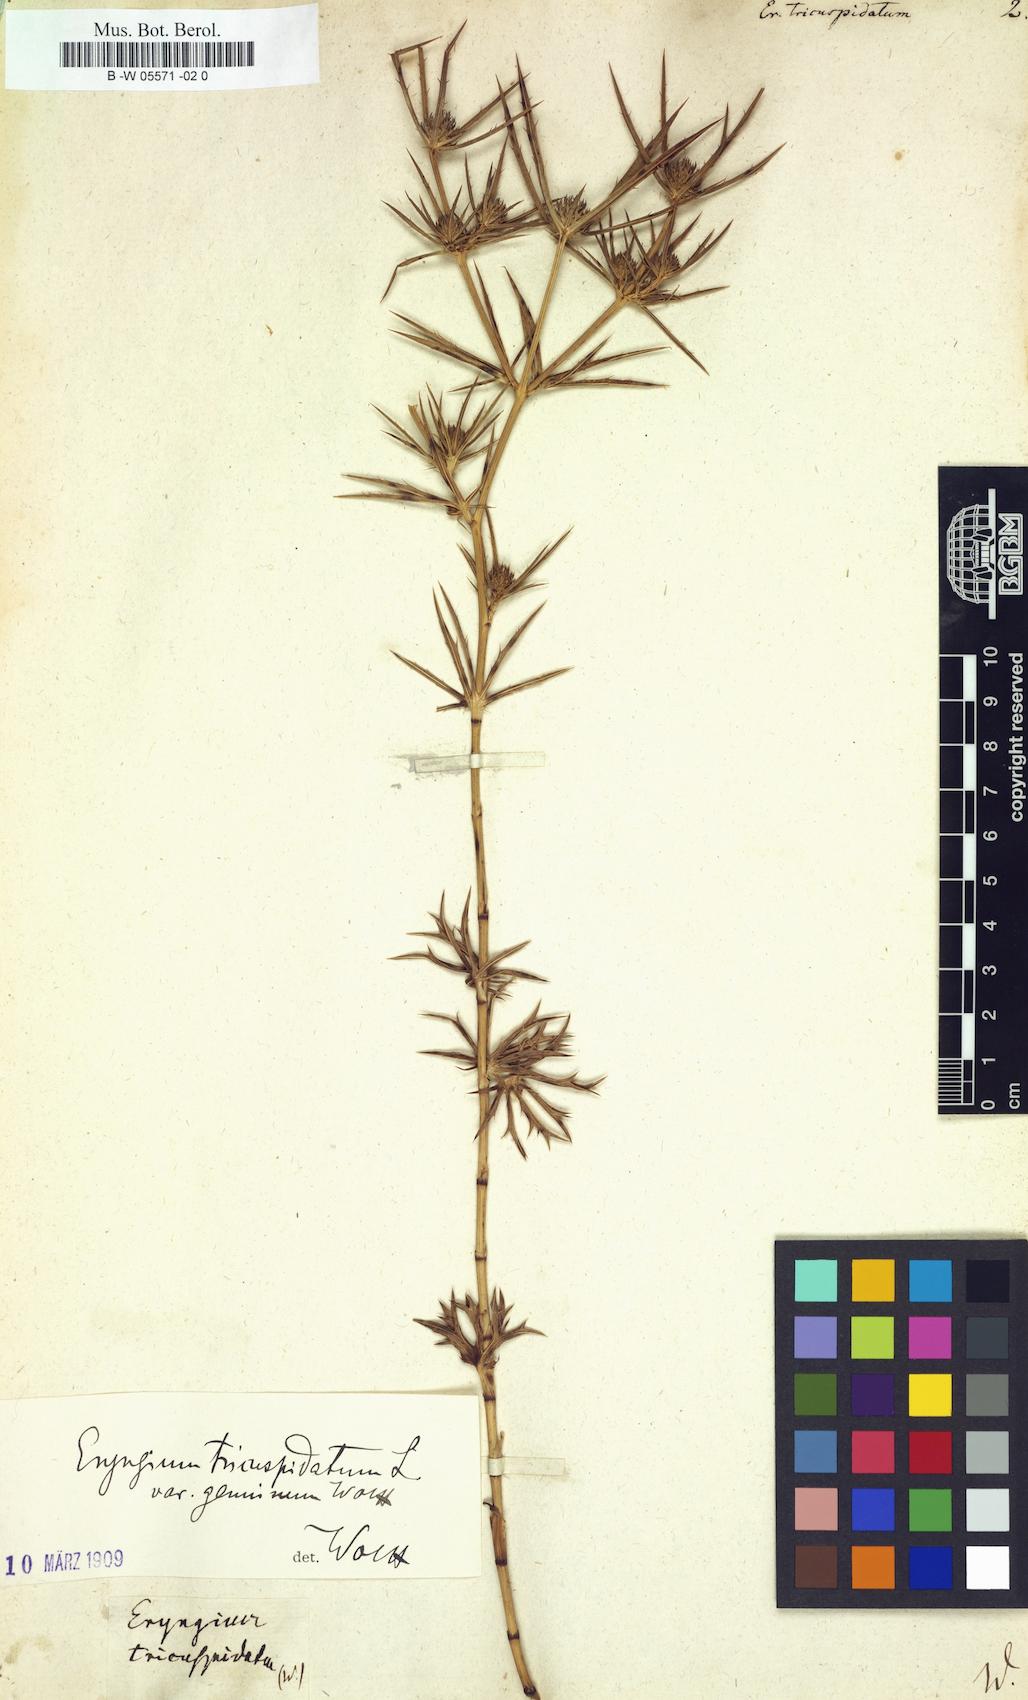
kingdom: Plantae
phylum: Tracheophyta
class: Magnoliopsida
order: Apiales
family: Apiaceae
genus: Eryngium
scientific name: Eryngium tricuspidatum
